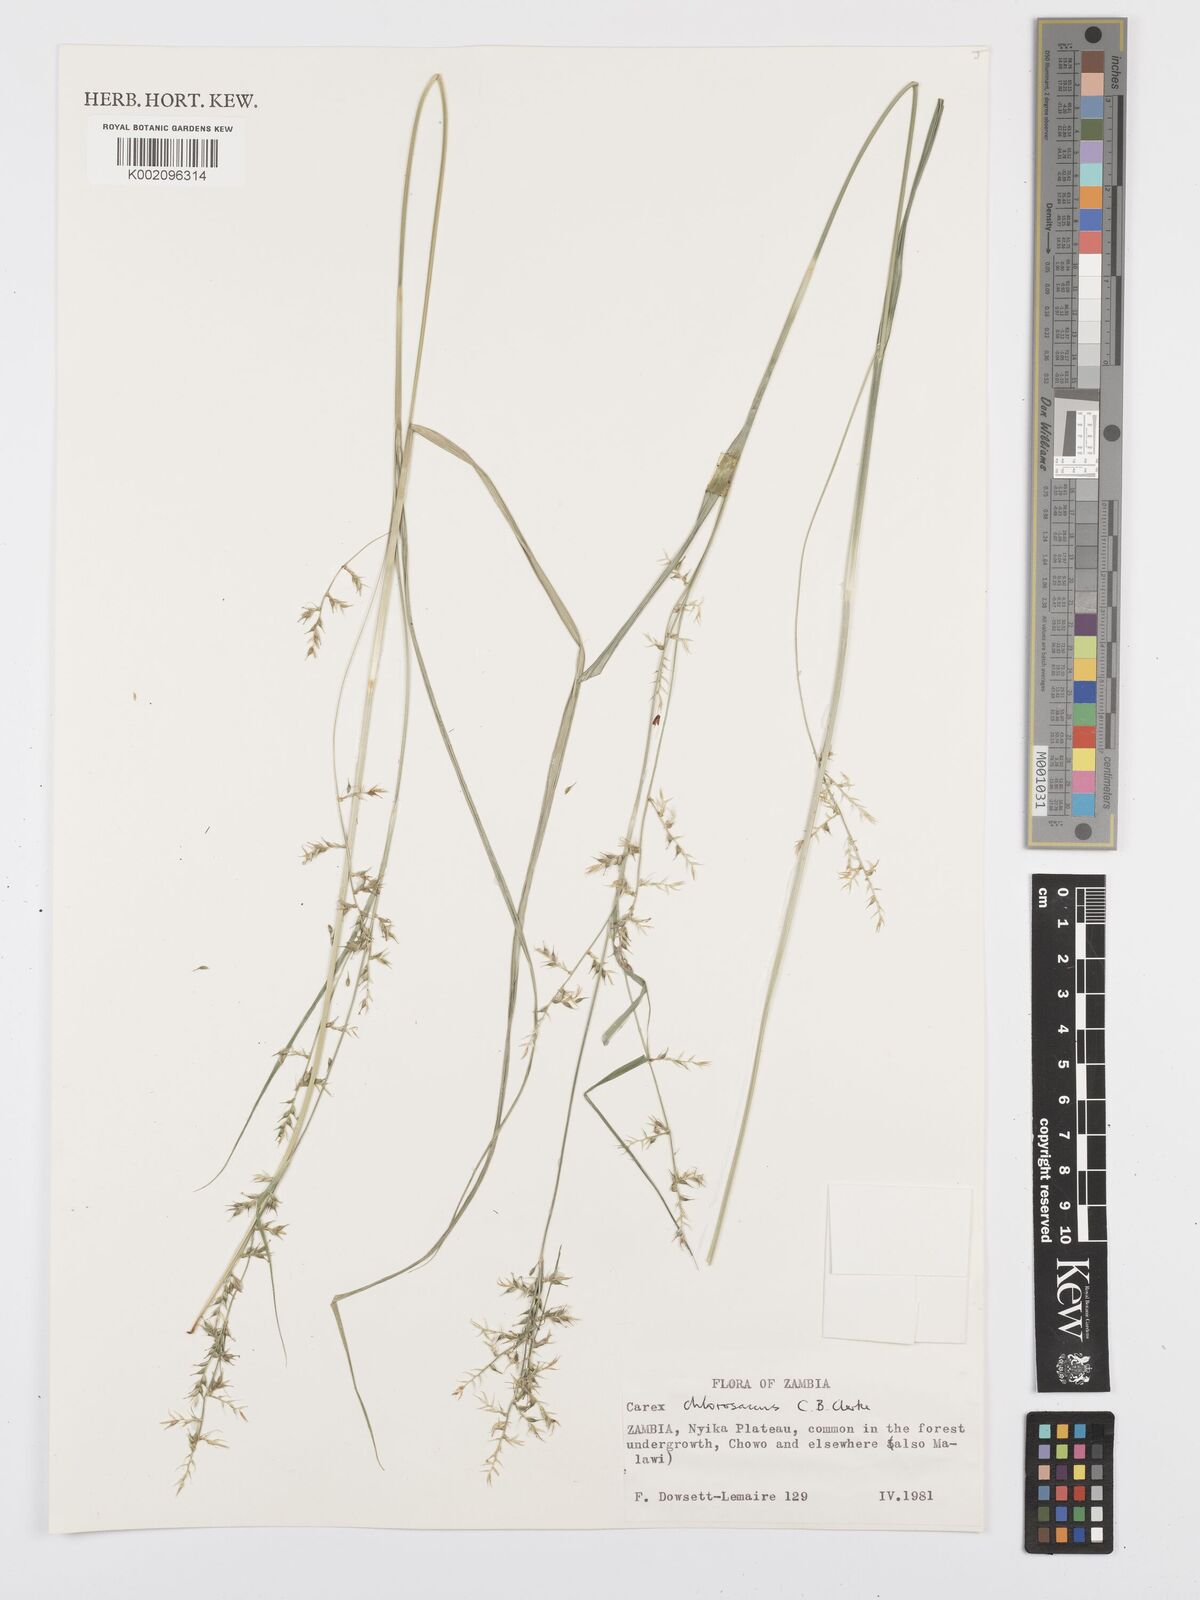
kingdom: Plantae
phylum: Tracheophyta
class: Liliopsida
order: Poales
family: Cyperaceae
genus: Carex
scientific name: Carex chlorosaccus
